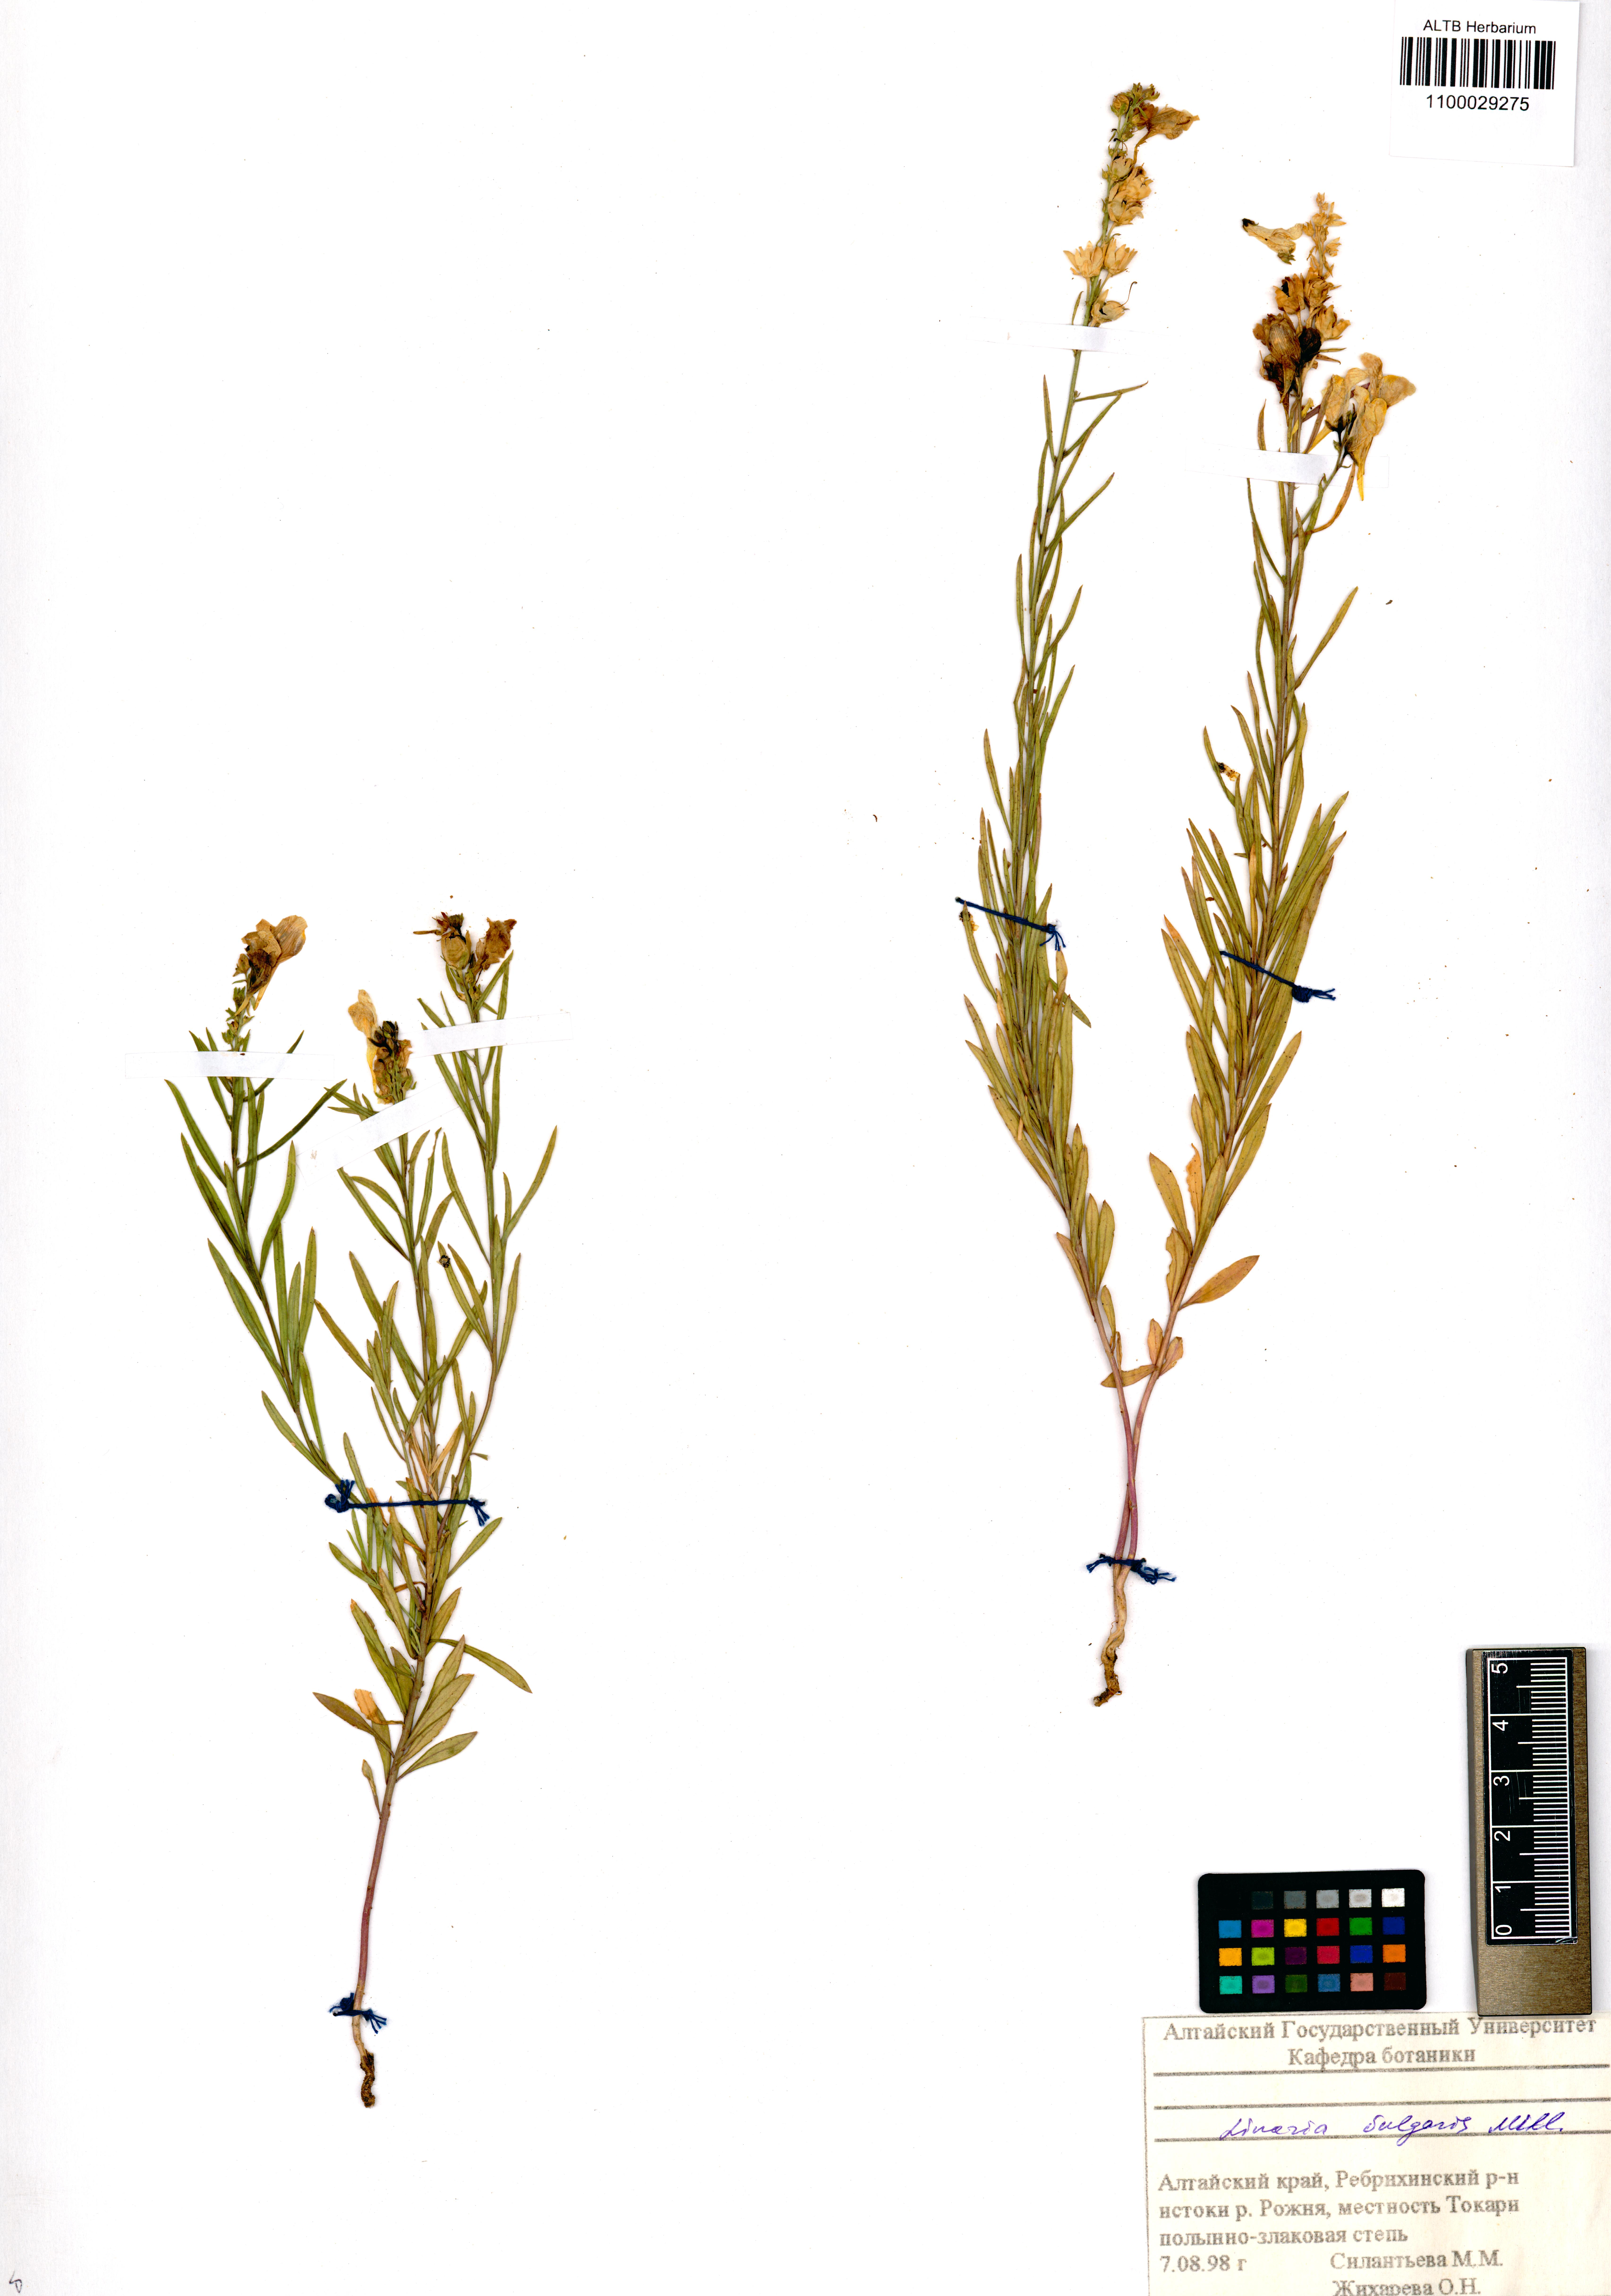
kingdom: Plantae
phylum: Tracheophyta
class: Magnoliopsida
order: Lamiales
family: Plantaginaceae
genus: Linaria
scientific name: Linaria vulgaris
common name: Butter and eggs
